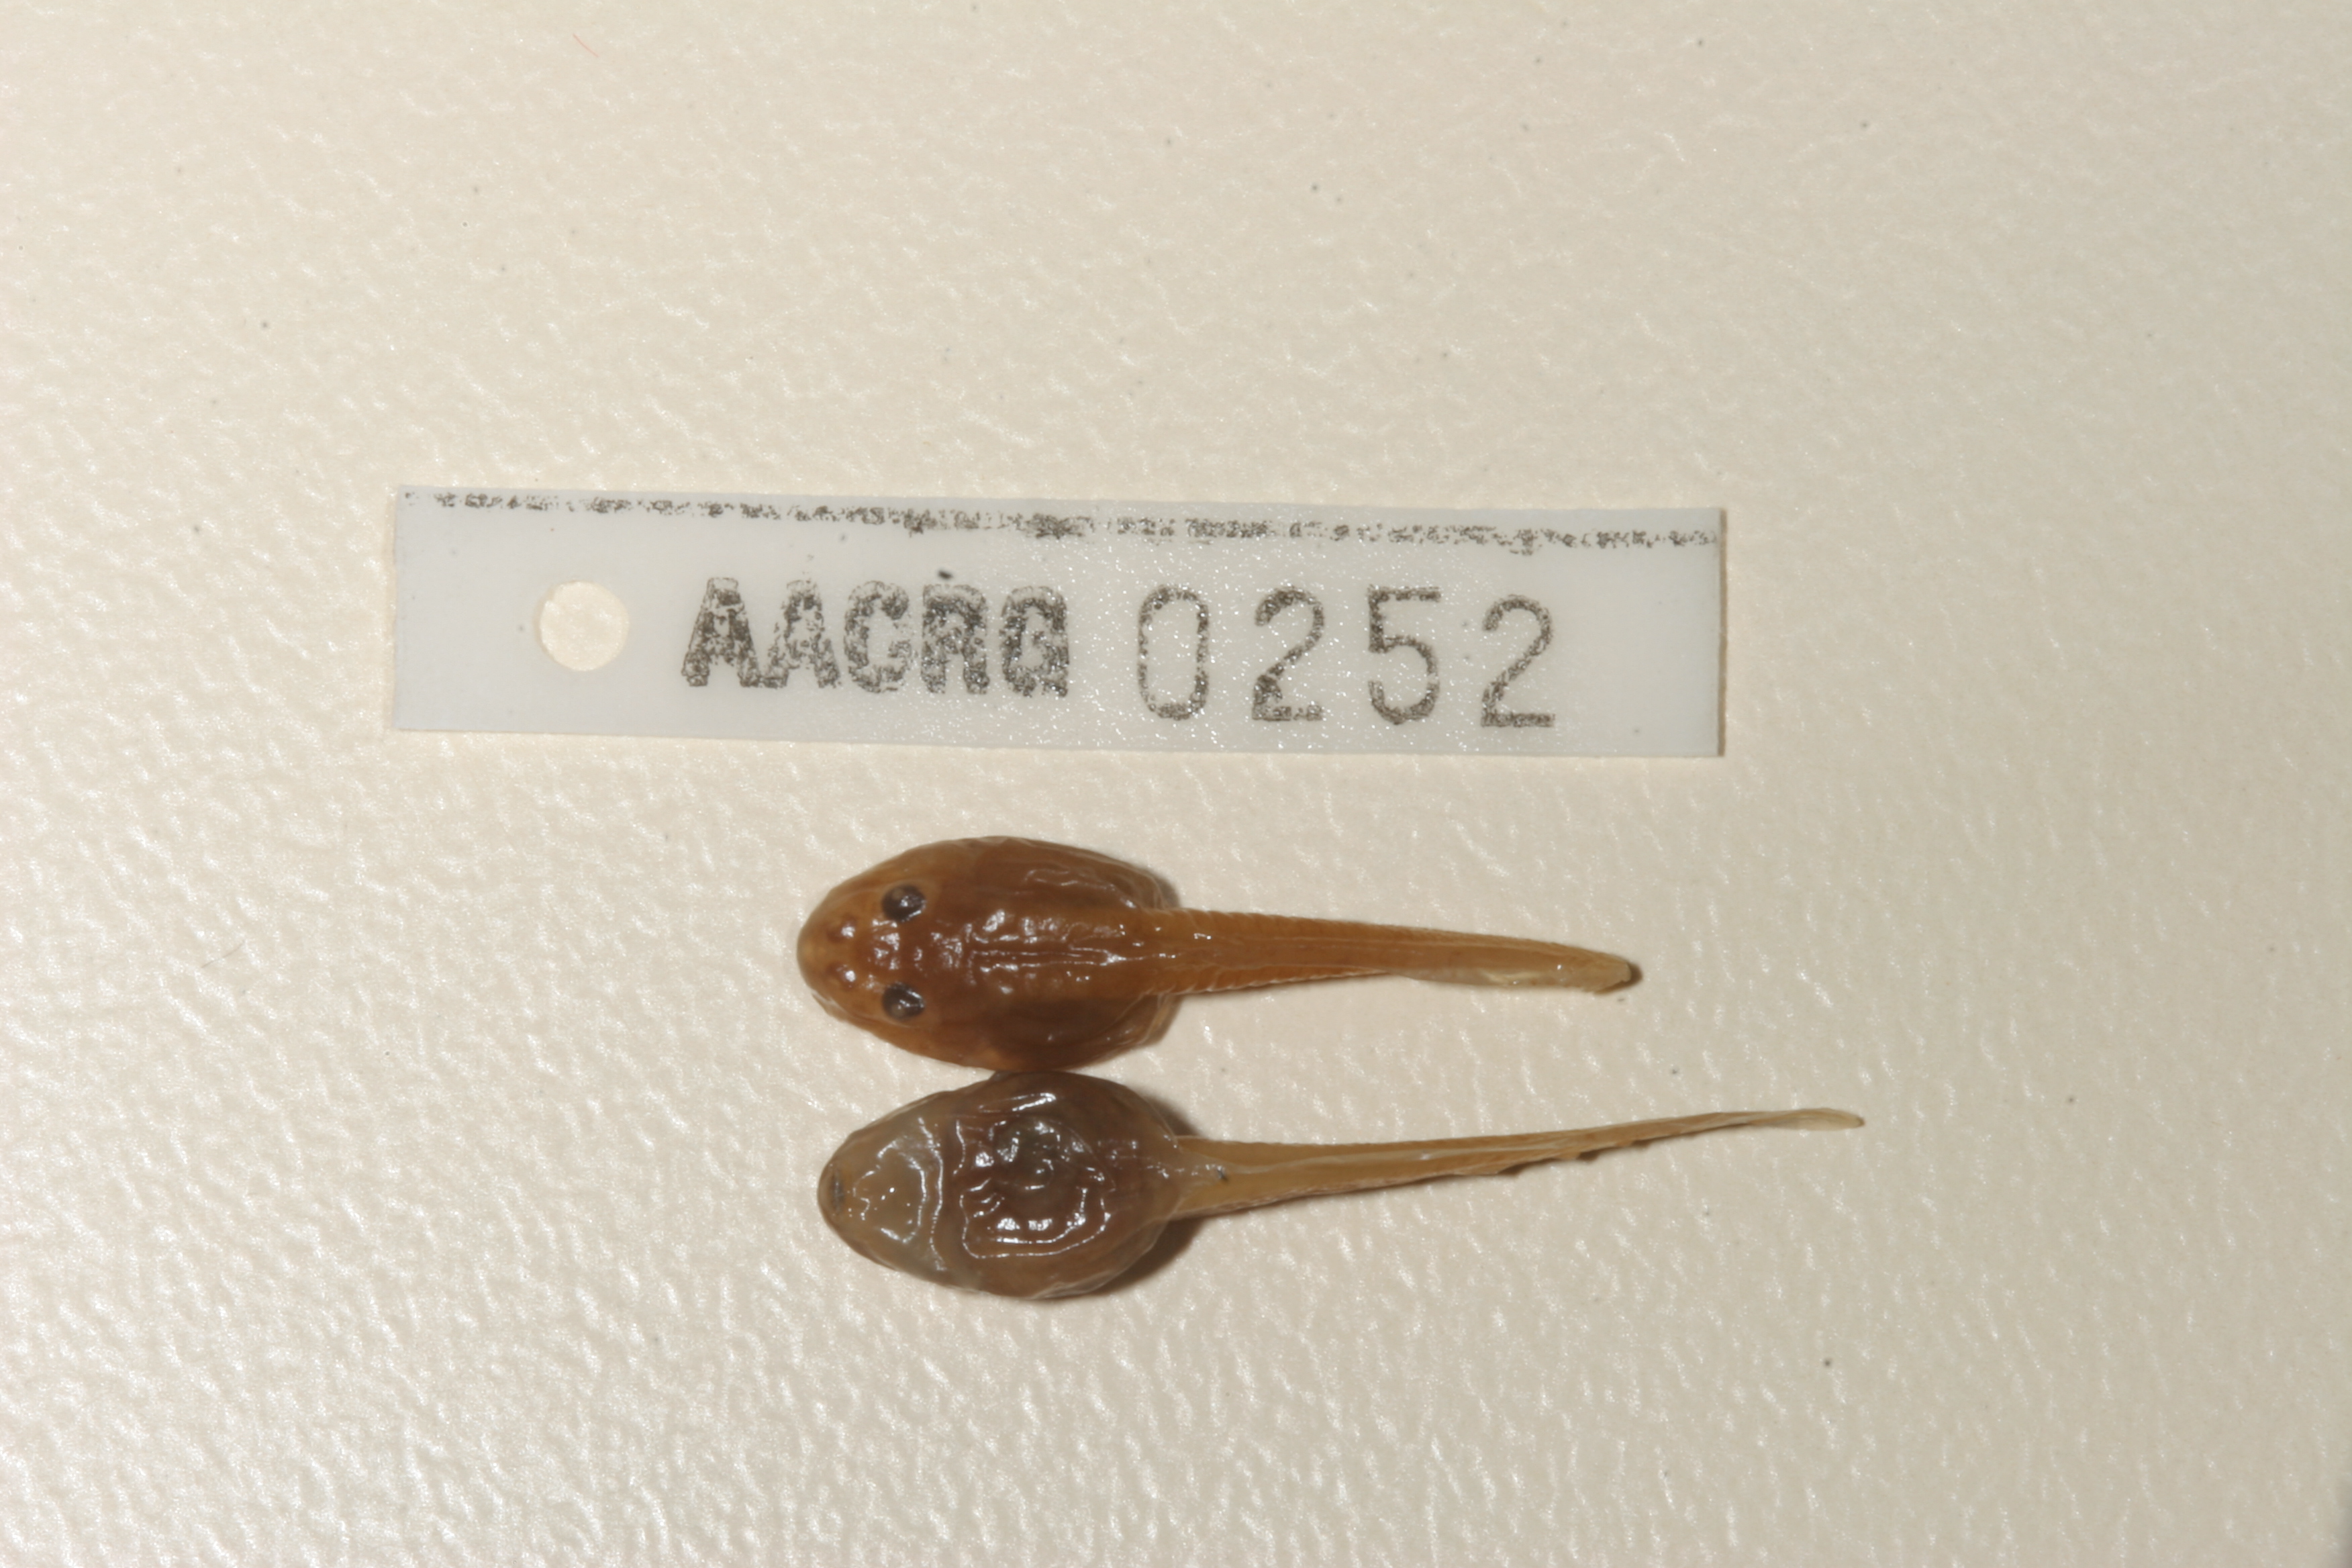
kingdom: Animalia
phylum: Chordata
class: Amphibia
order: Anura
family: Pyxicephalidae
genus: Amietia
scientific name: Amietia fuscigula
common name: Cape rana
